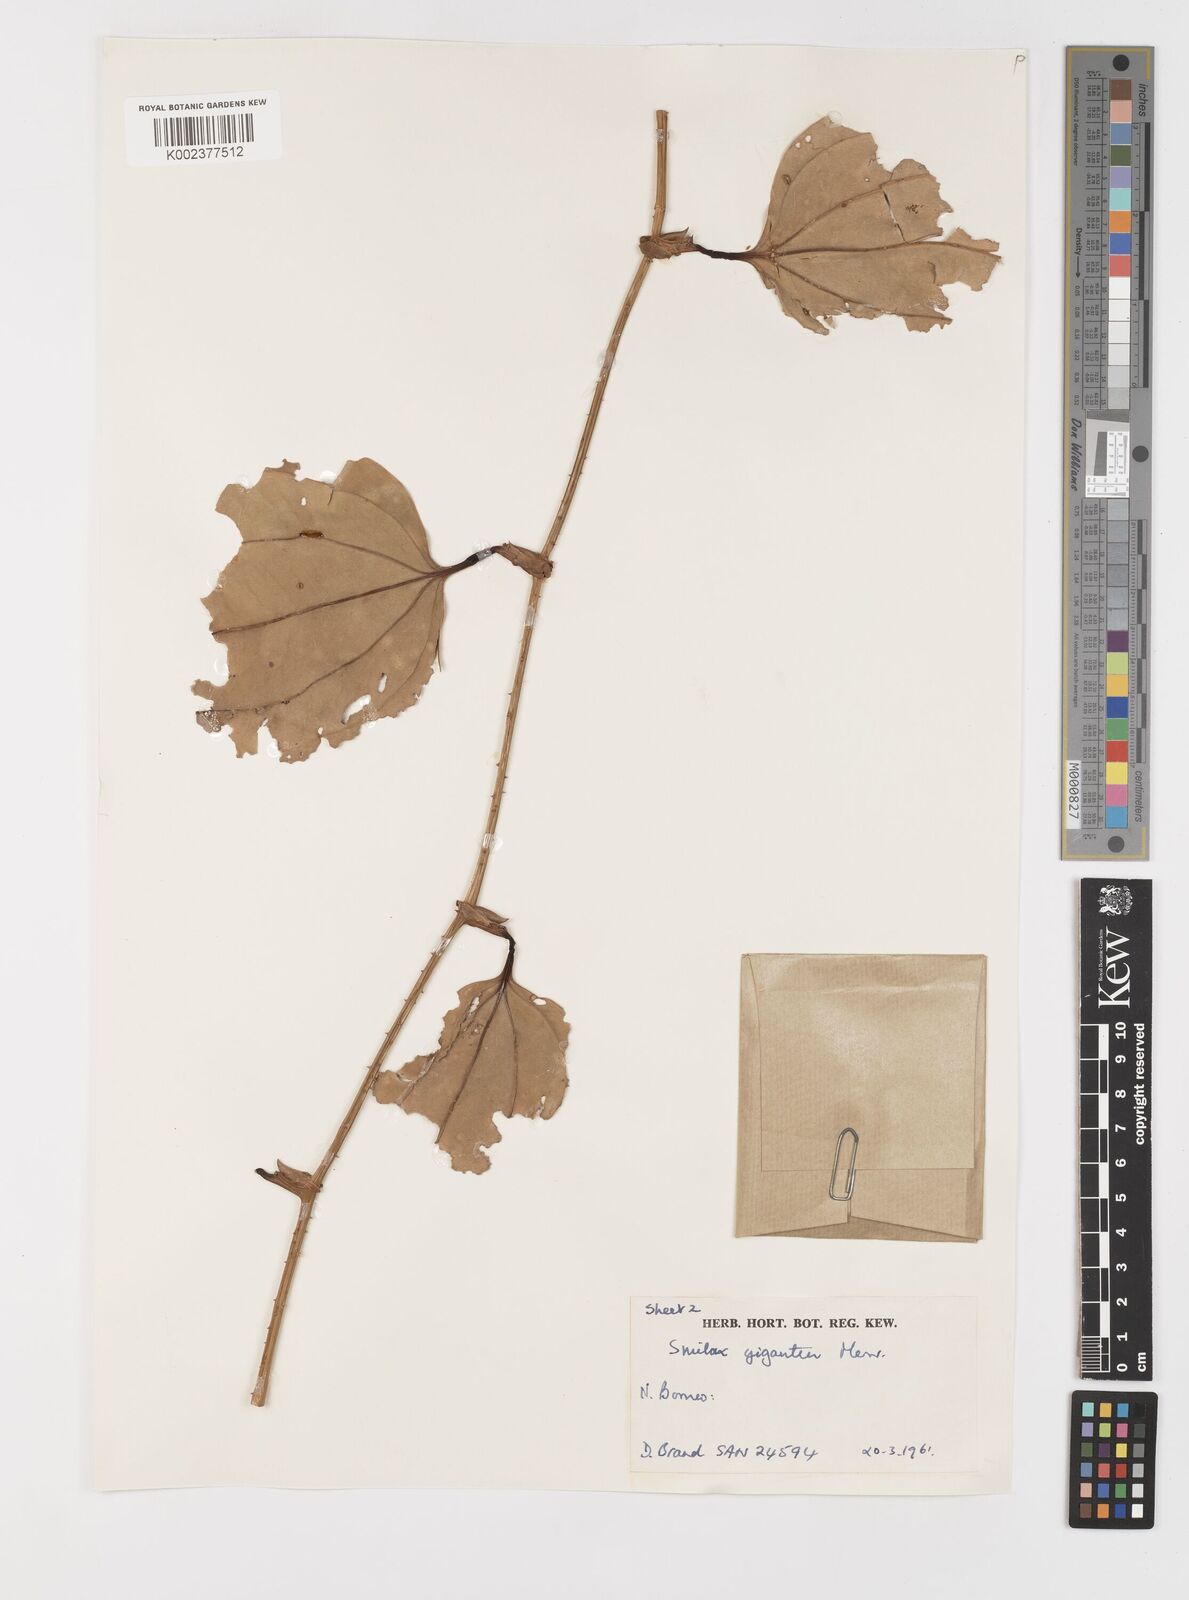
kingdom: Plantae
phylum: Tracheophyta
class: Liliopsida
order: Liliales
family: Smilacaceae
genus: Smilax
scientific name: Smilax gigantea
